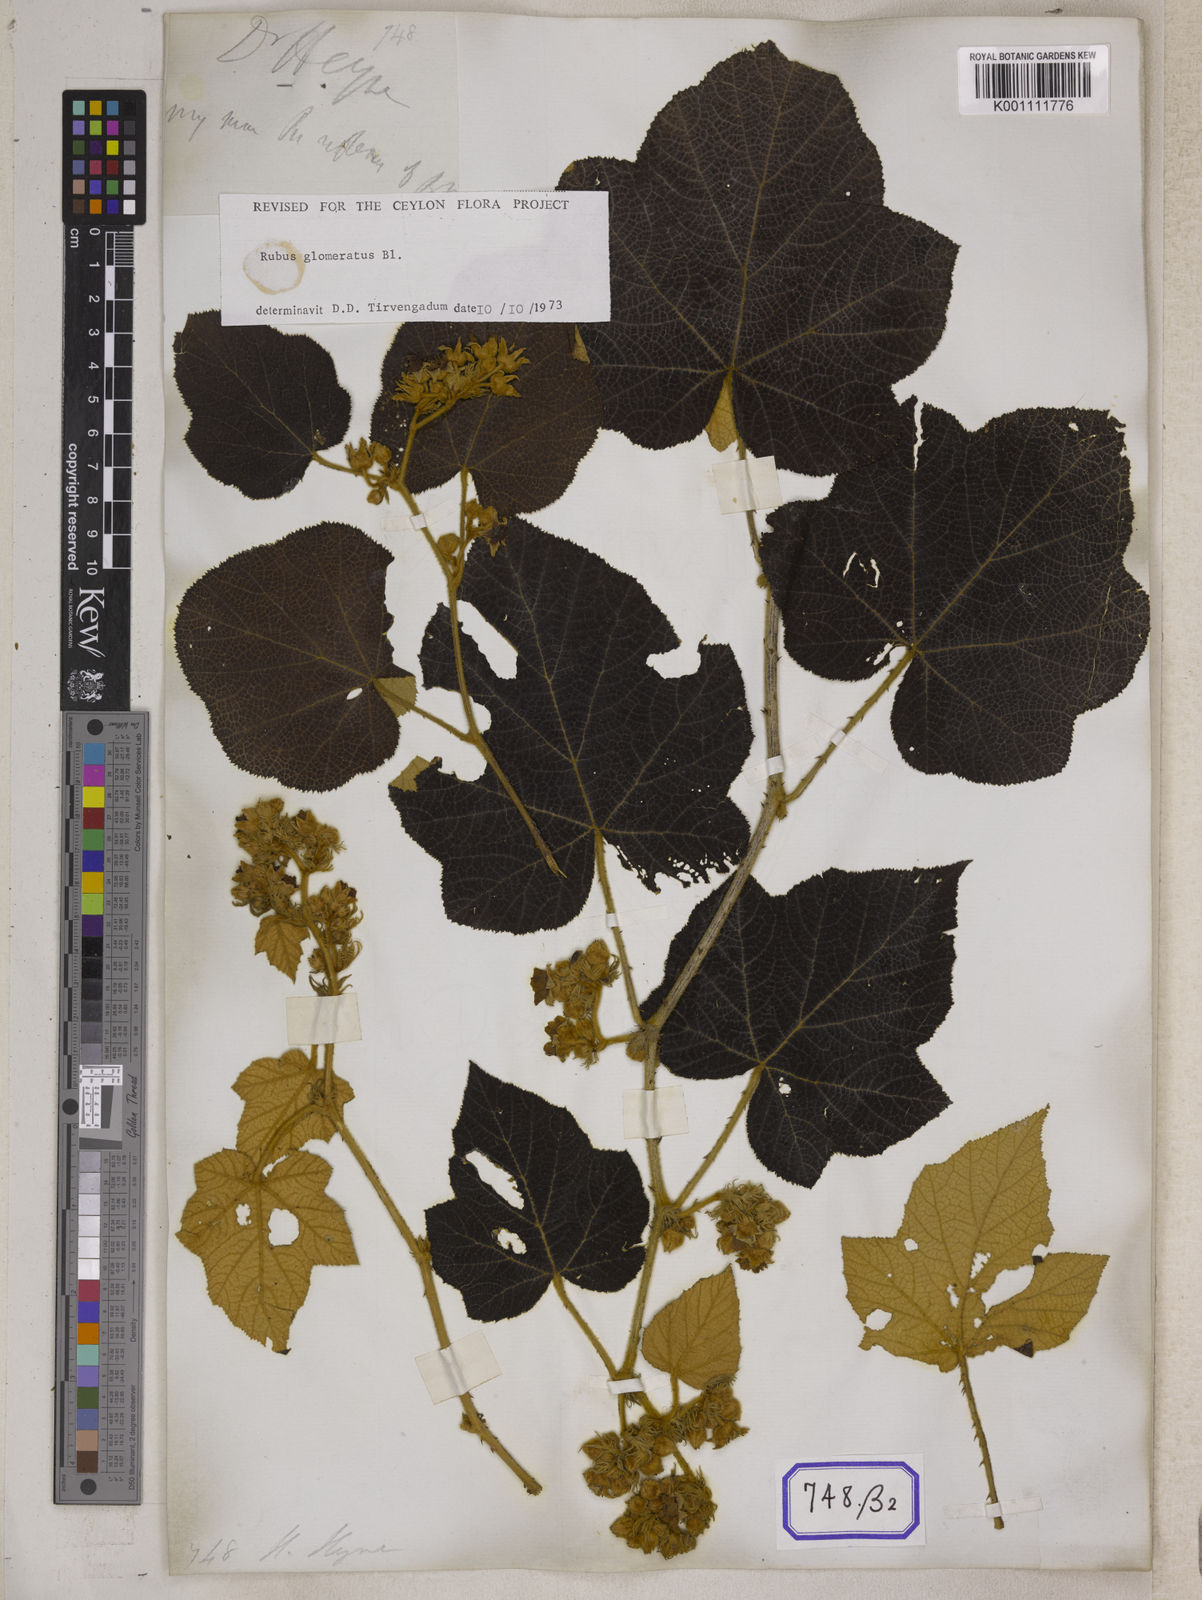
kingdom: Plantae
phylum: Tracheophyta
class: Magnoliopsida
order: Rosales
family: Rosaceae
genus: Rubus
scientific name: Rubus
